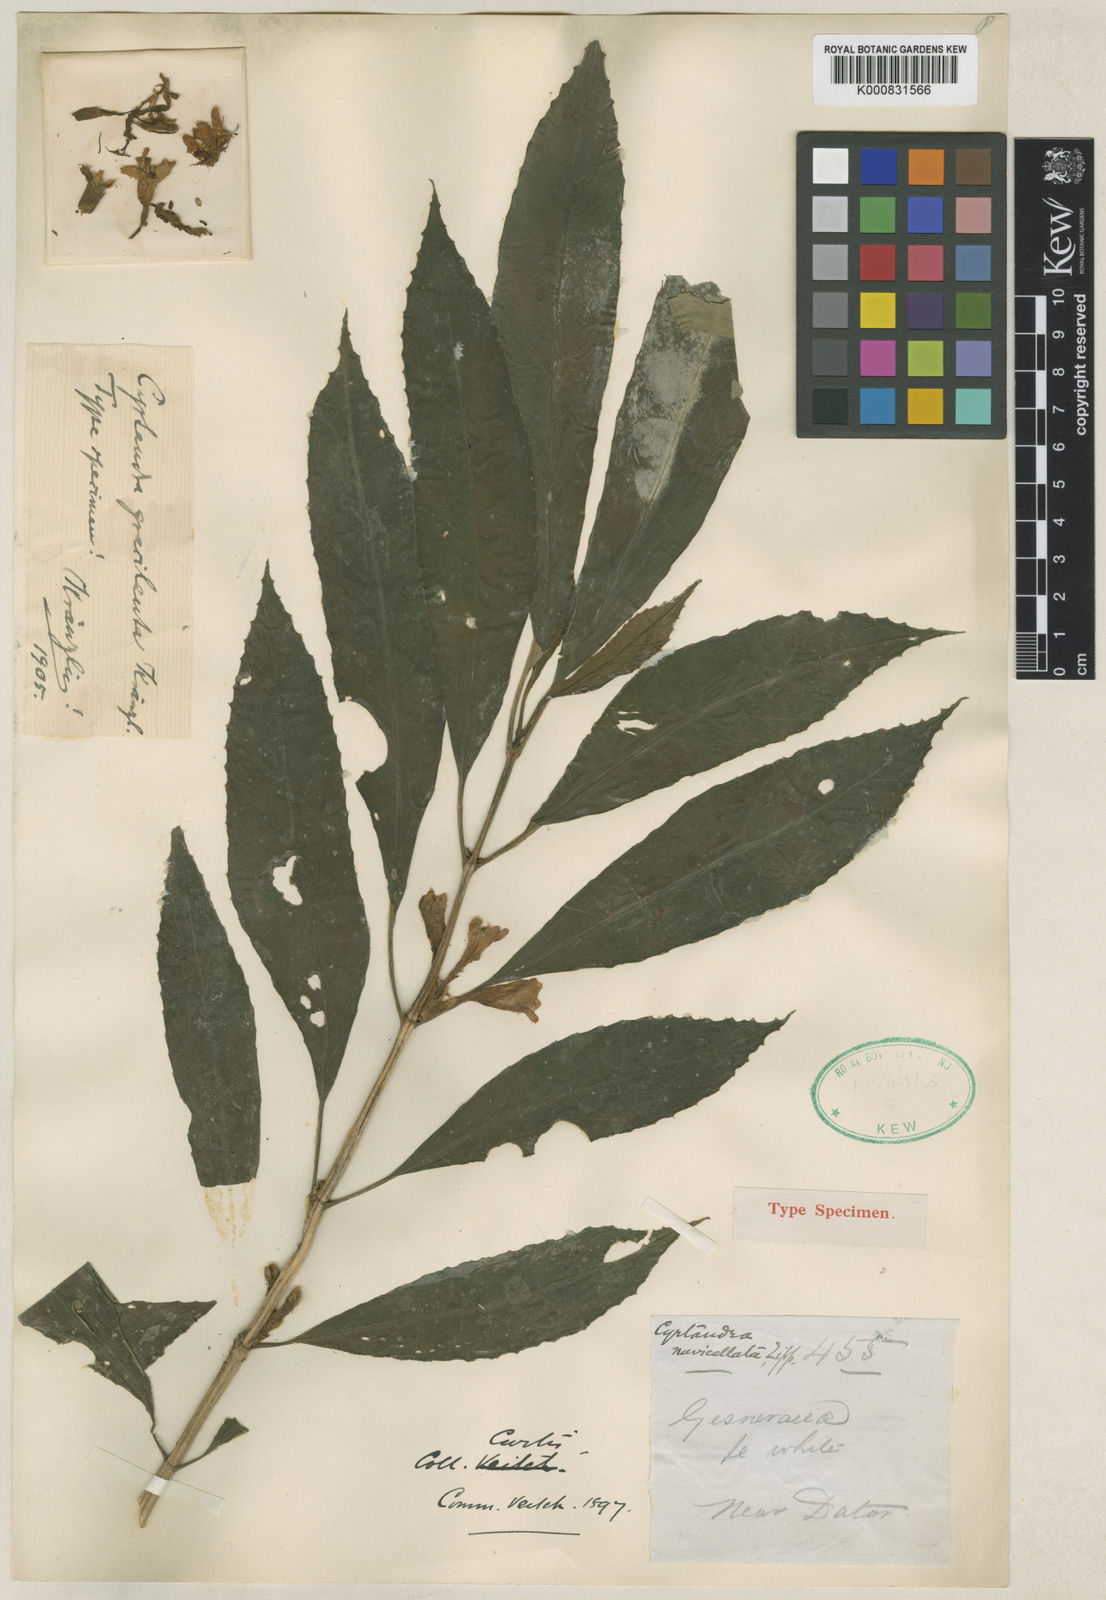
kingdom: Plantae
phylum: Tracheophyta
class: Magnoliopsida
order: Lamiales
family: Gesneriaceae
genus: Cyrtandra
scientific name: Cyrtandra gracilenta
